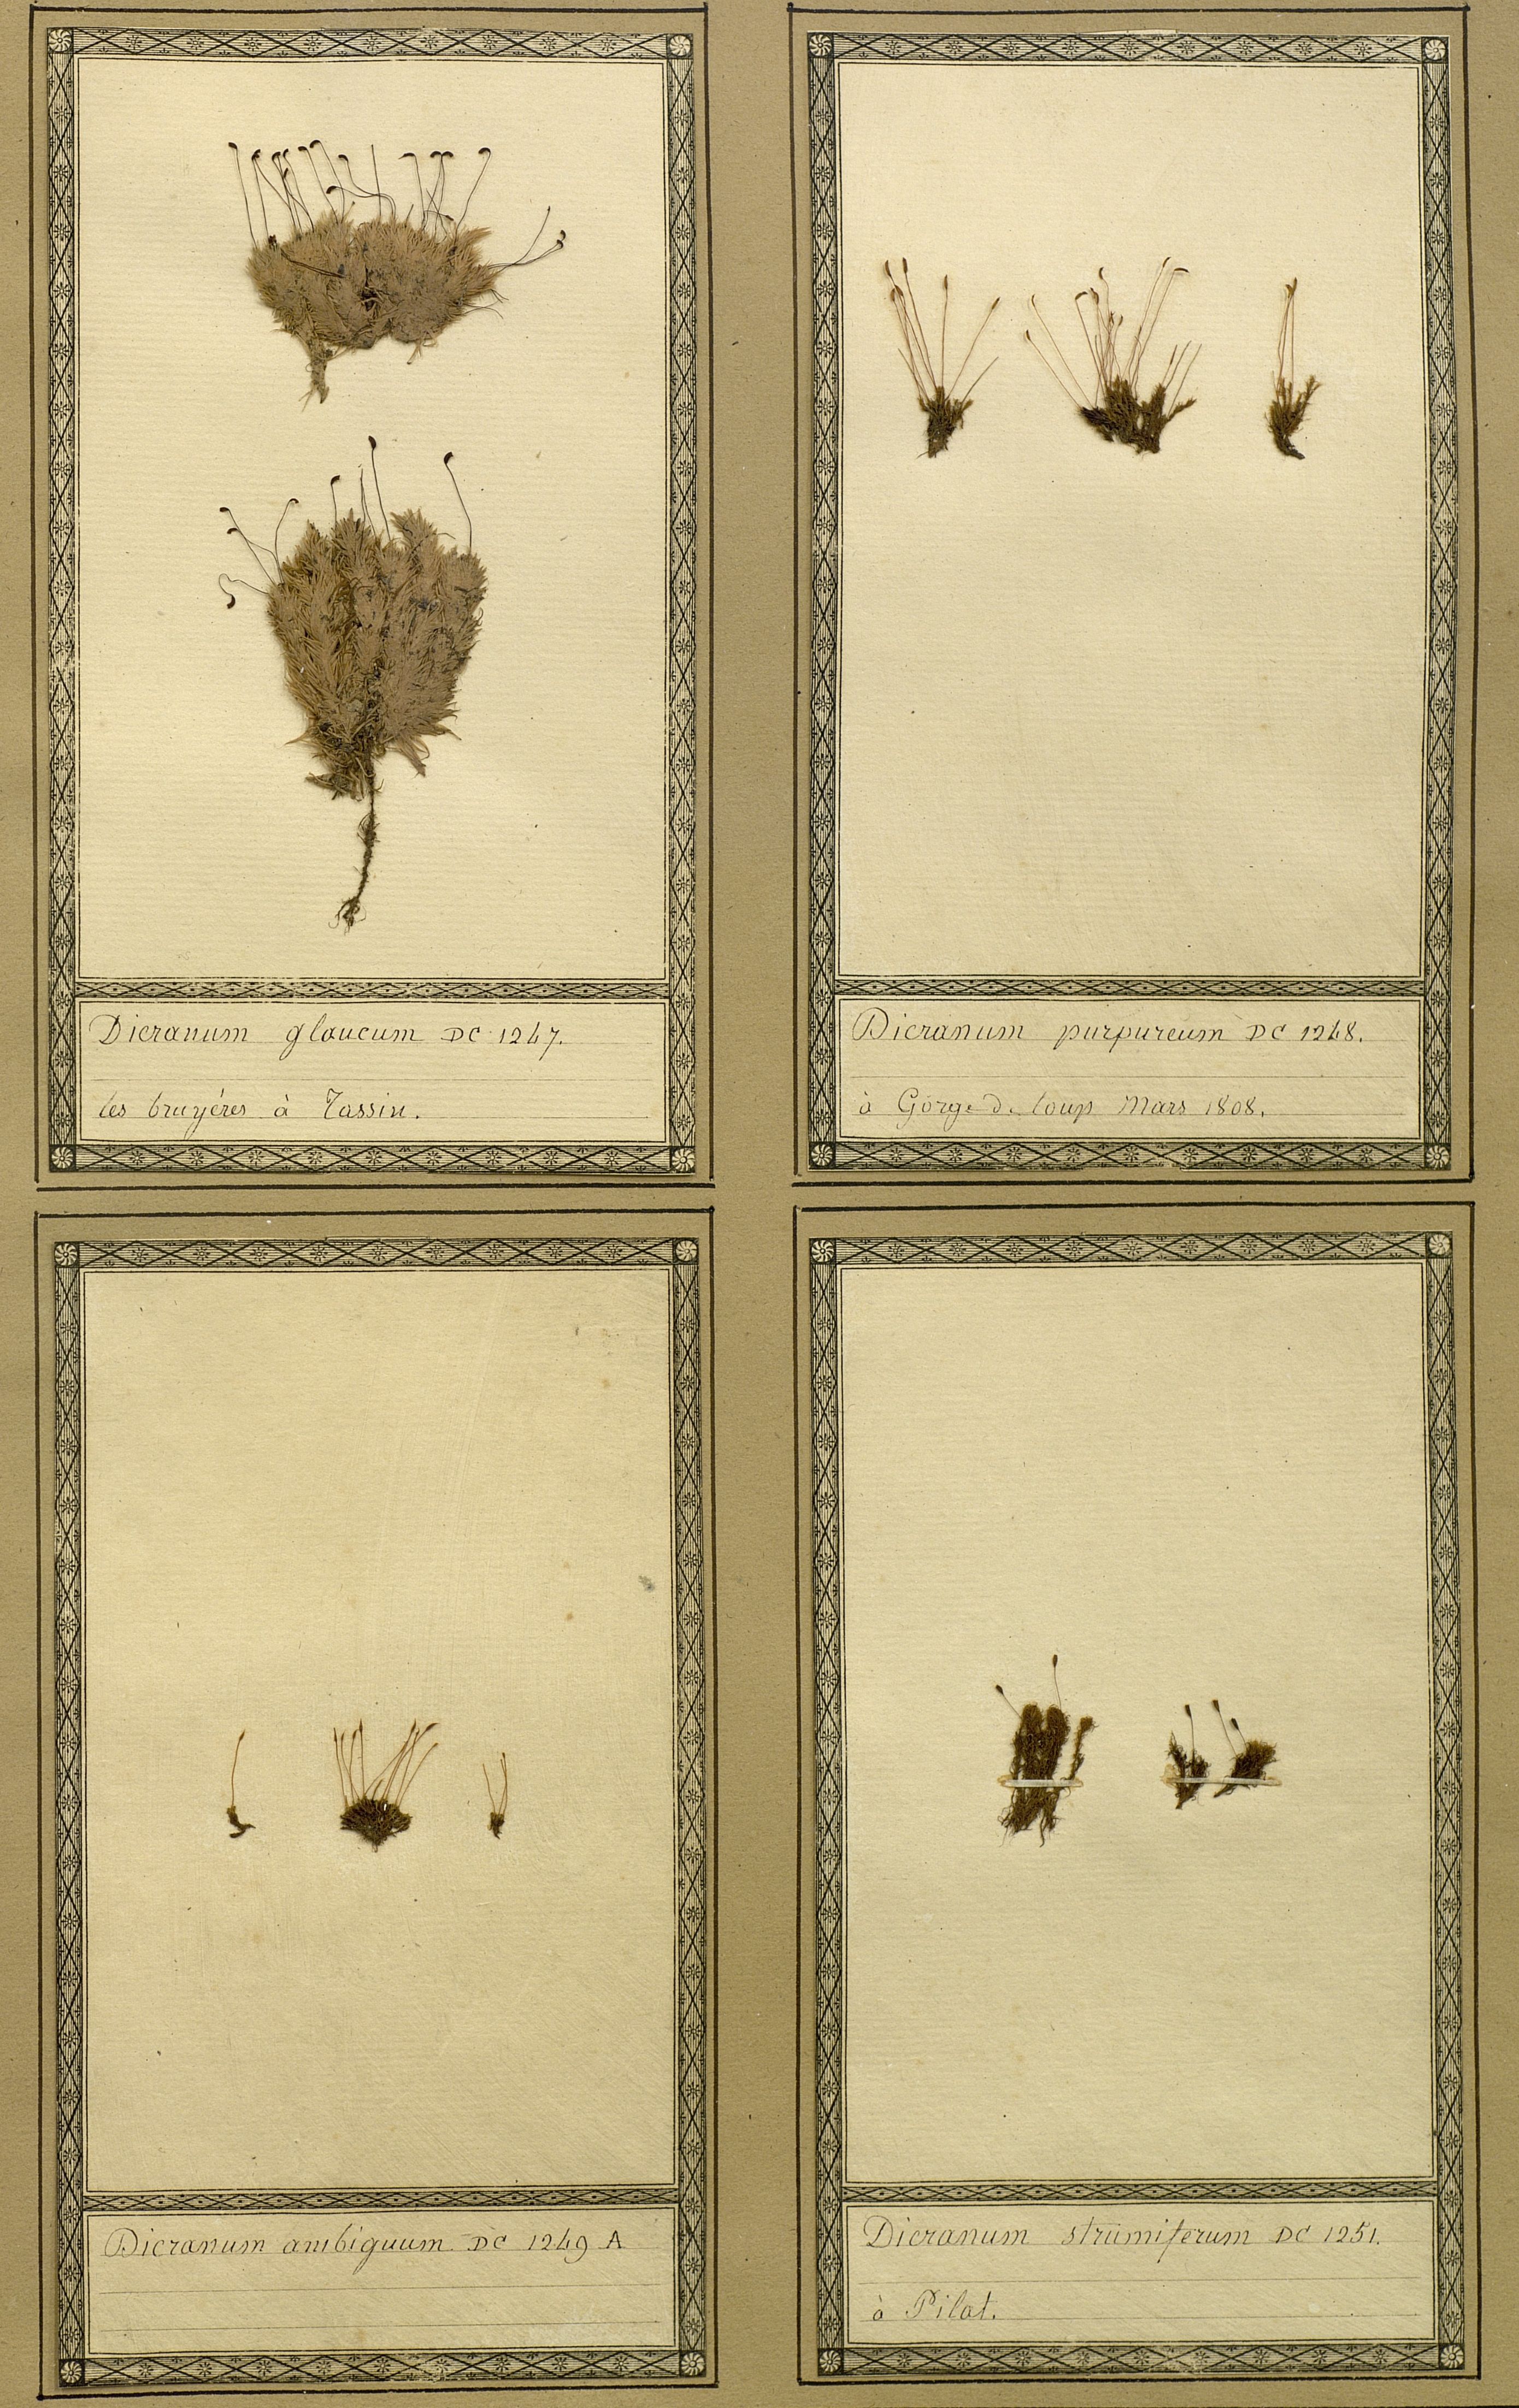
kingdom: Plantae
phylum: Bryophyta
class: Bryopsida
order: Dicranales
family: Ditrichaceae
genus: Ceratodon
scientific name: Ceratodon purpureus
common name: Redshank
